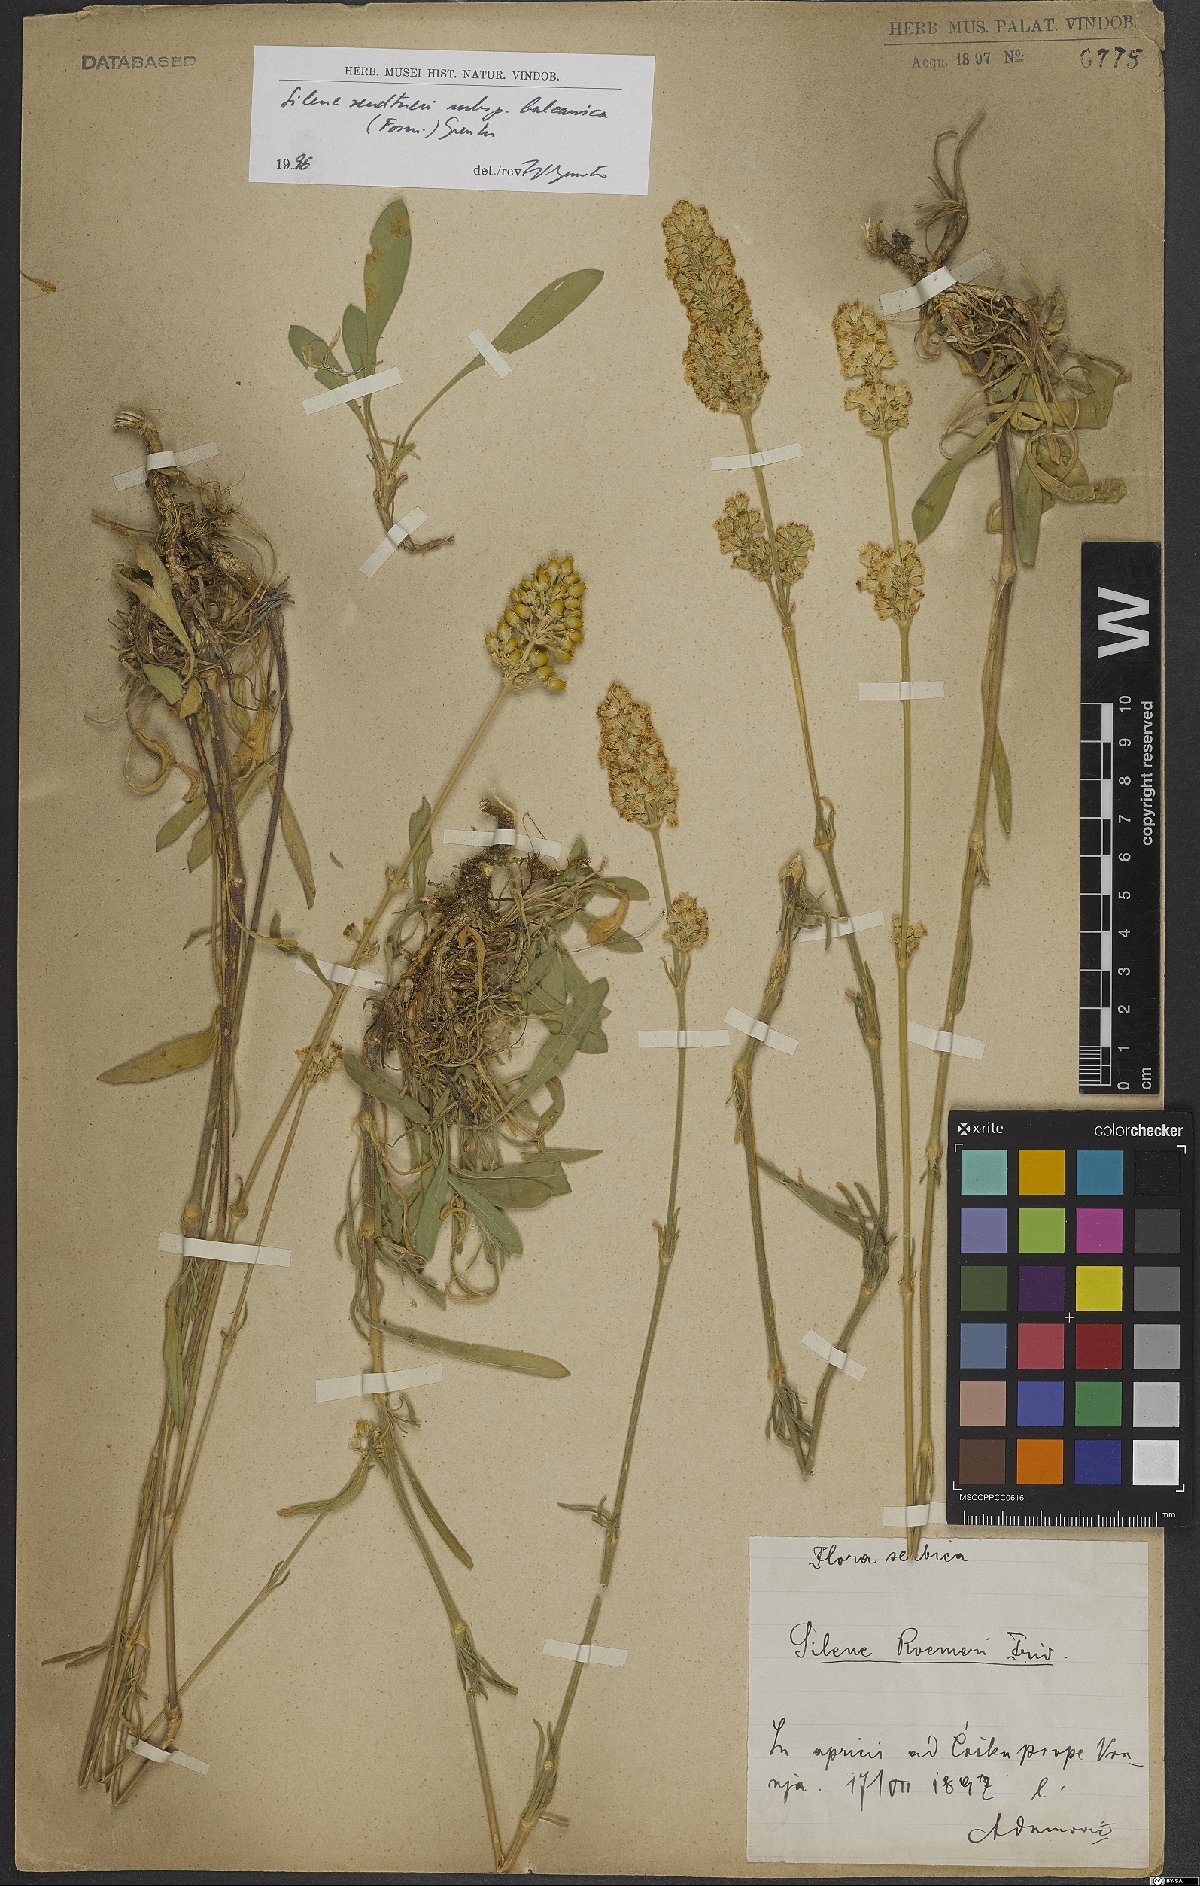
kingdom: Plantae
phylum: Tracheophyta
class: Magnoliopsida
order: Caryophyllales
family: Caryophyllaceae
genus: Silene
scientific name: Silene sendtneri
